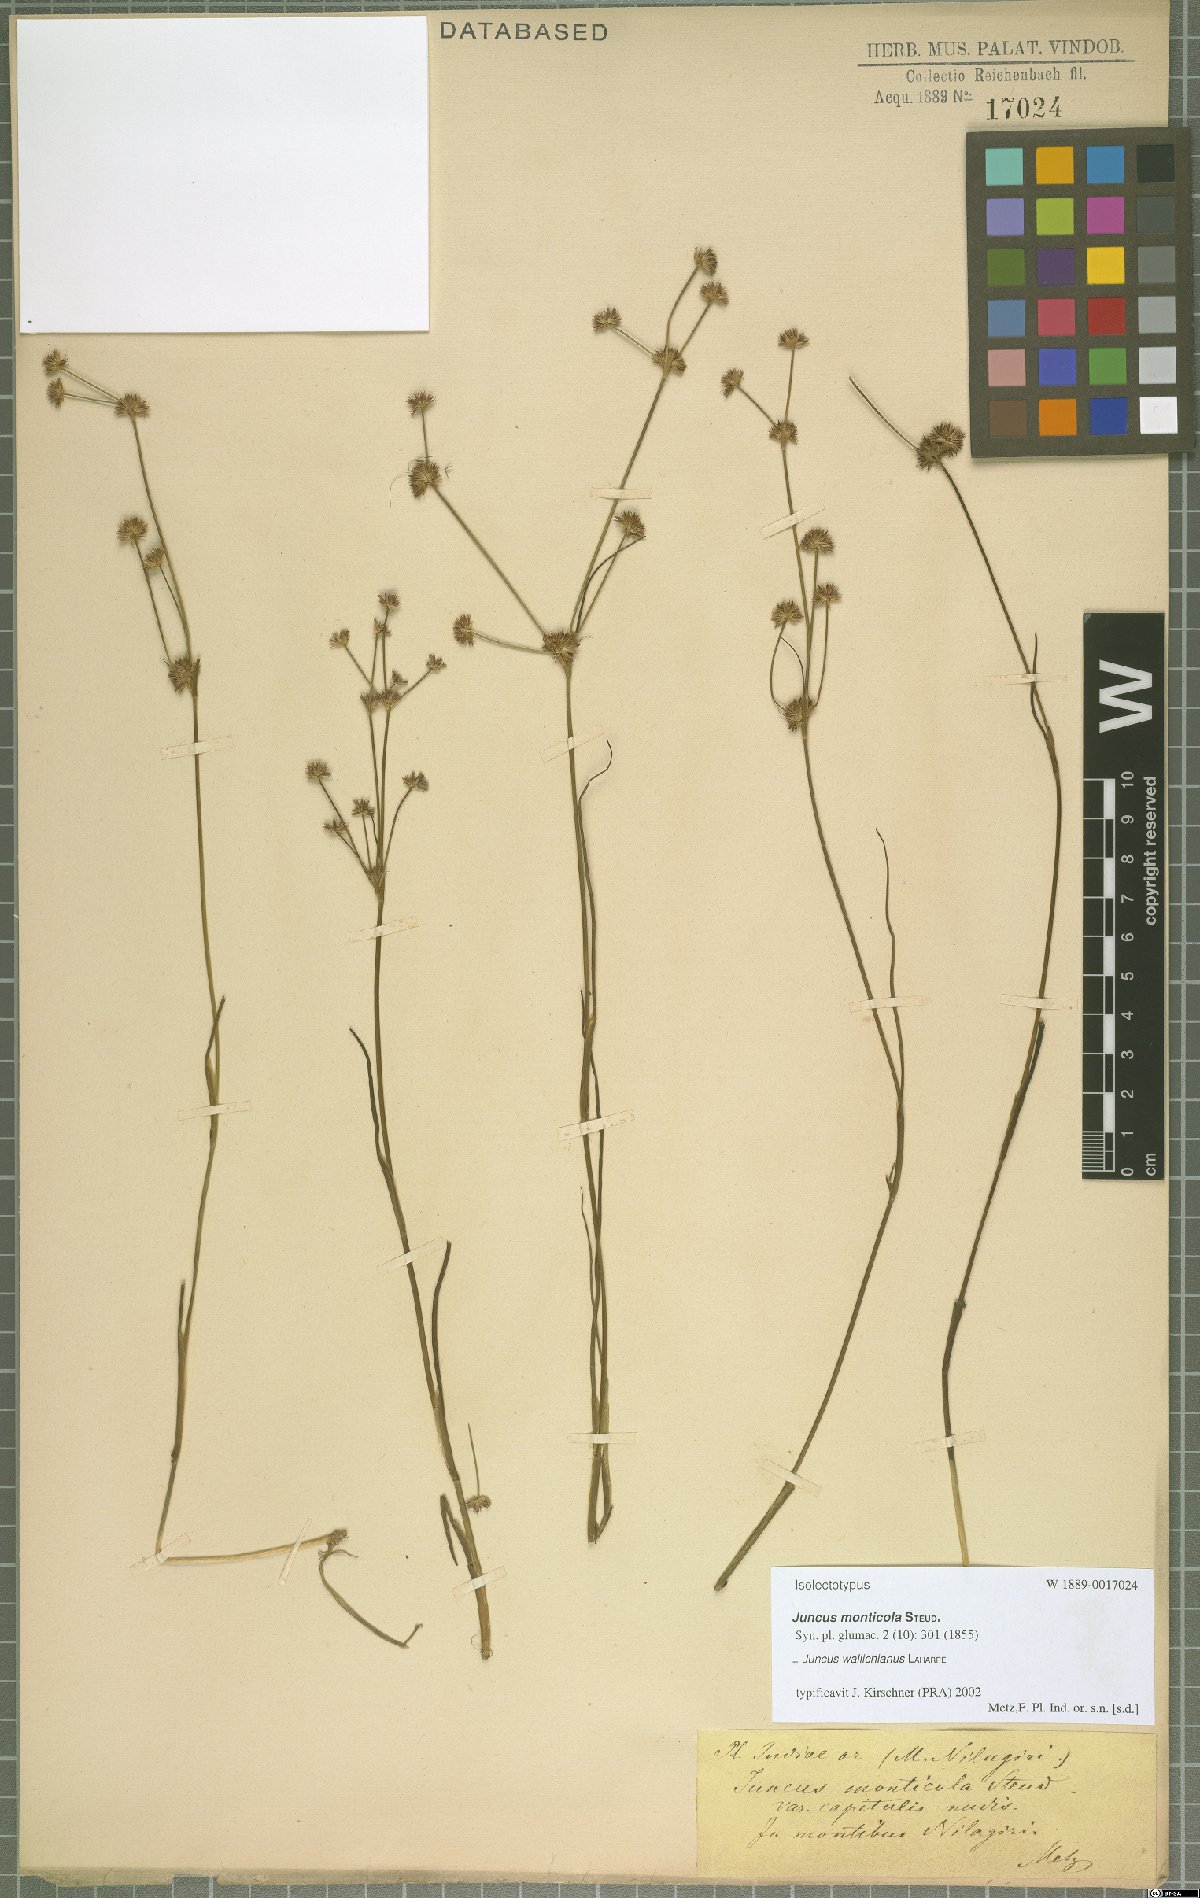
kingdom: Plantae
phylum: Tracheophyta
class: Liliopsida
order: Poales
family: Juncaceae
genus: Juncus
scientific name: Juncus wallichianus
